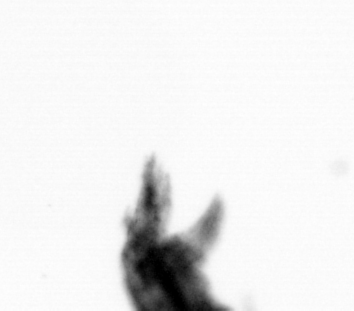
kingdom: Animalia
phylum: Arthropoda
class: Copepoda
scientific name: Copepoda
